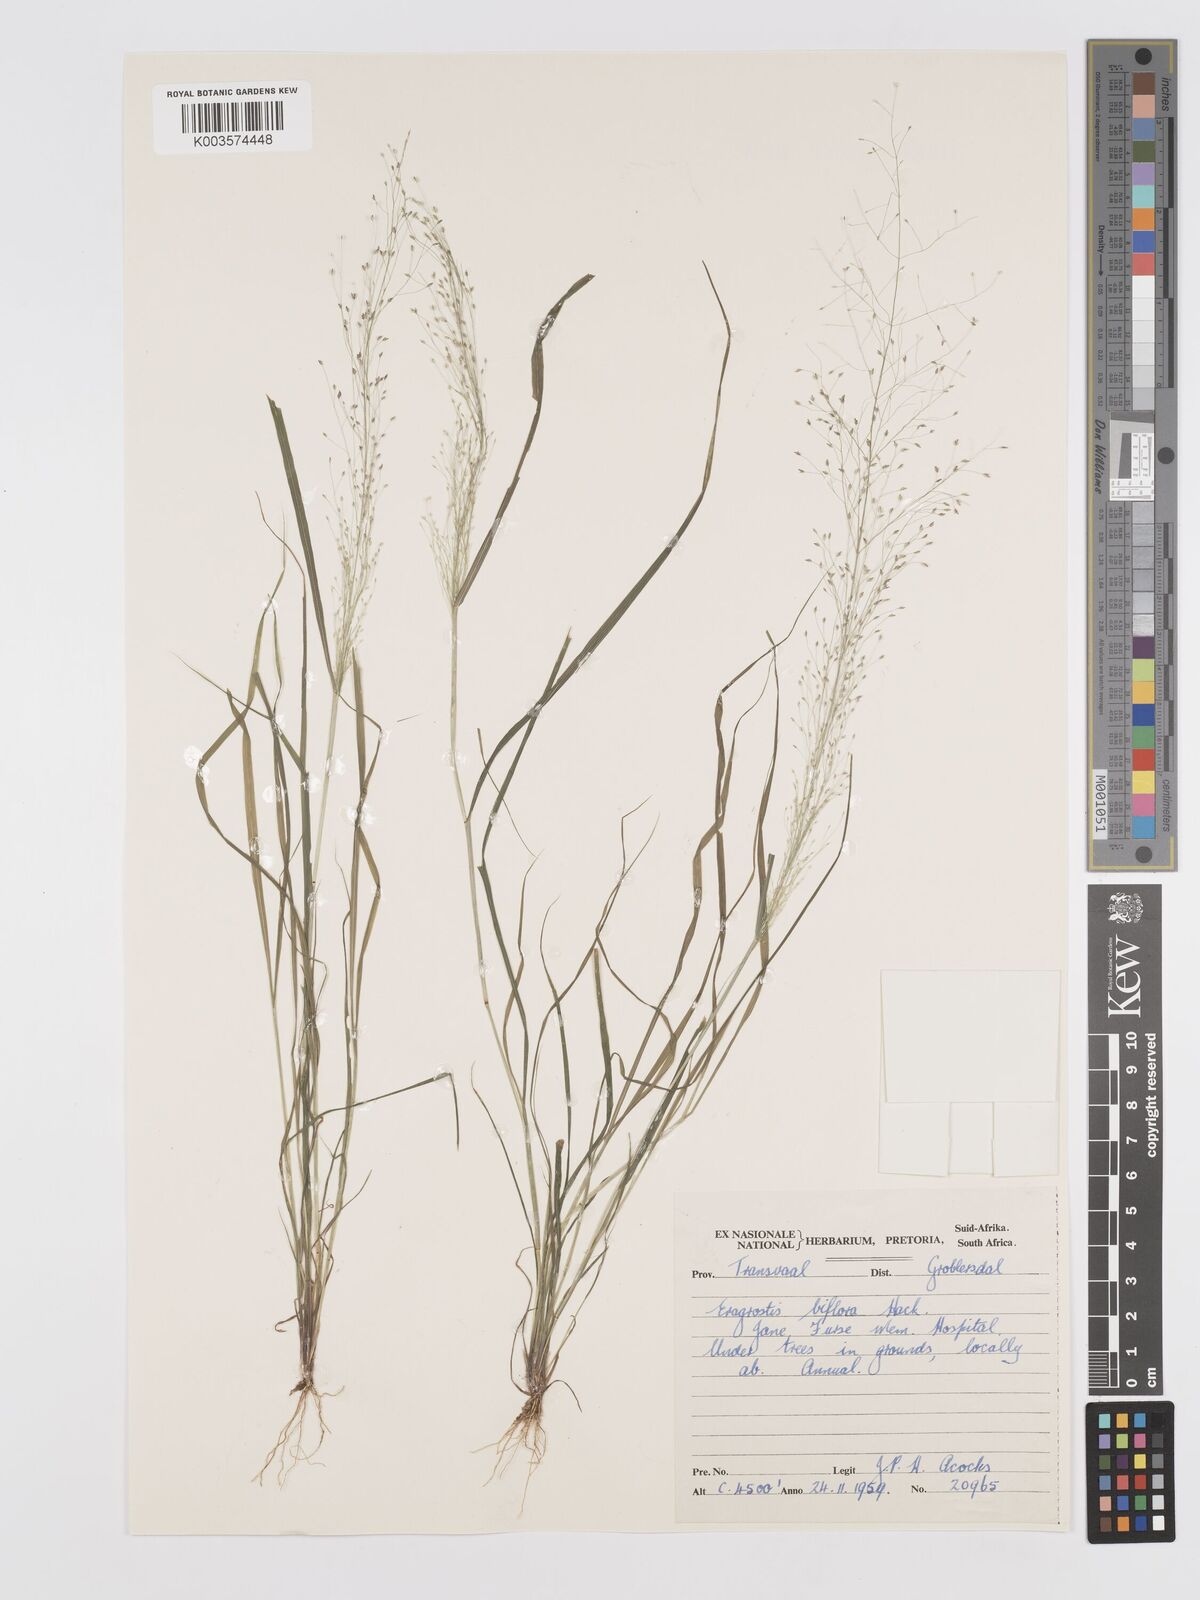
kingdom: Plantae
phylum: Tracheophyta
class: Liliopsida
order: Poales
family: Poaceae
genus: Eragrostis
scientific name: Eragrostis biflora
